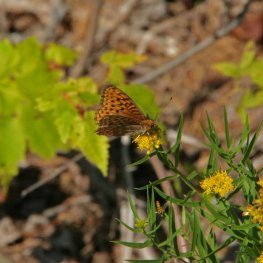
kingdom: Animalia
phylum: Arthropoda
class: Insecta
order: Lepidoptera
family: Nymphalidae
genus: Speyeria
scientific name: Speyeria cybele
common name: Great Spangled Fritillary
